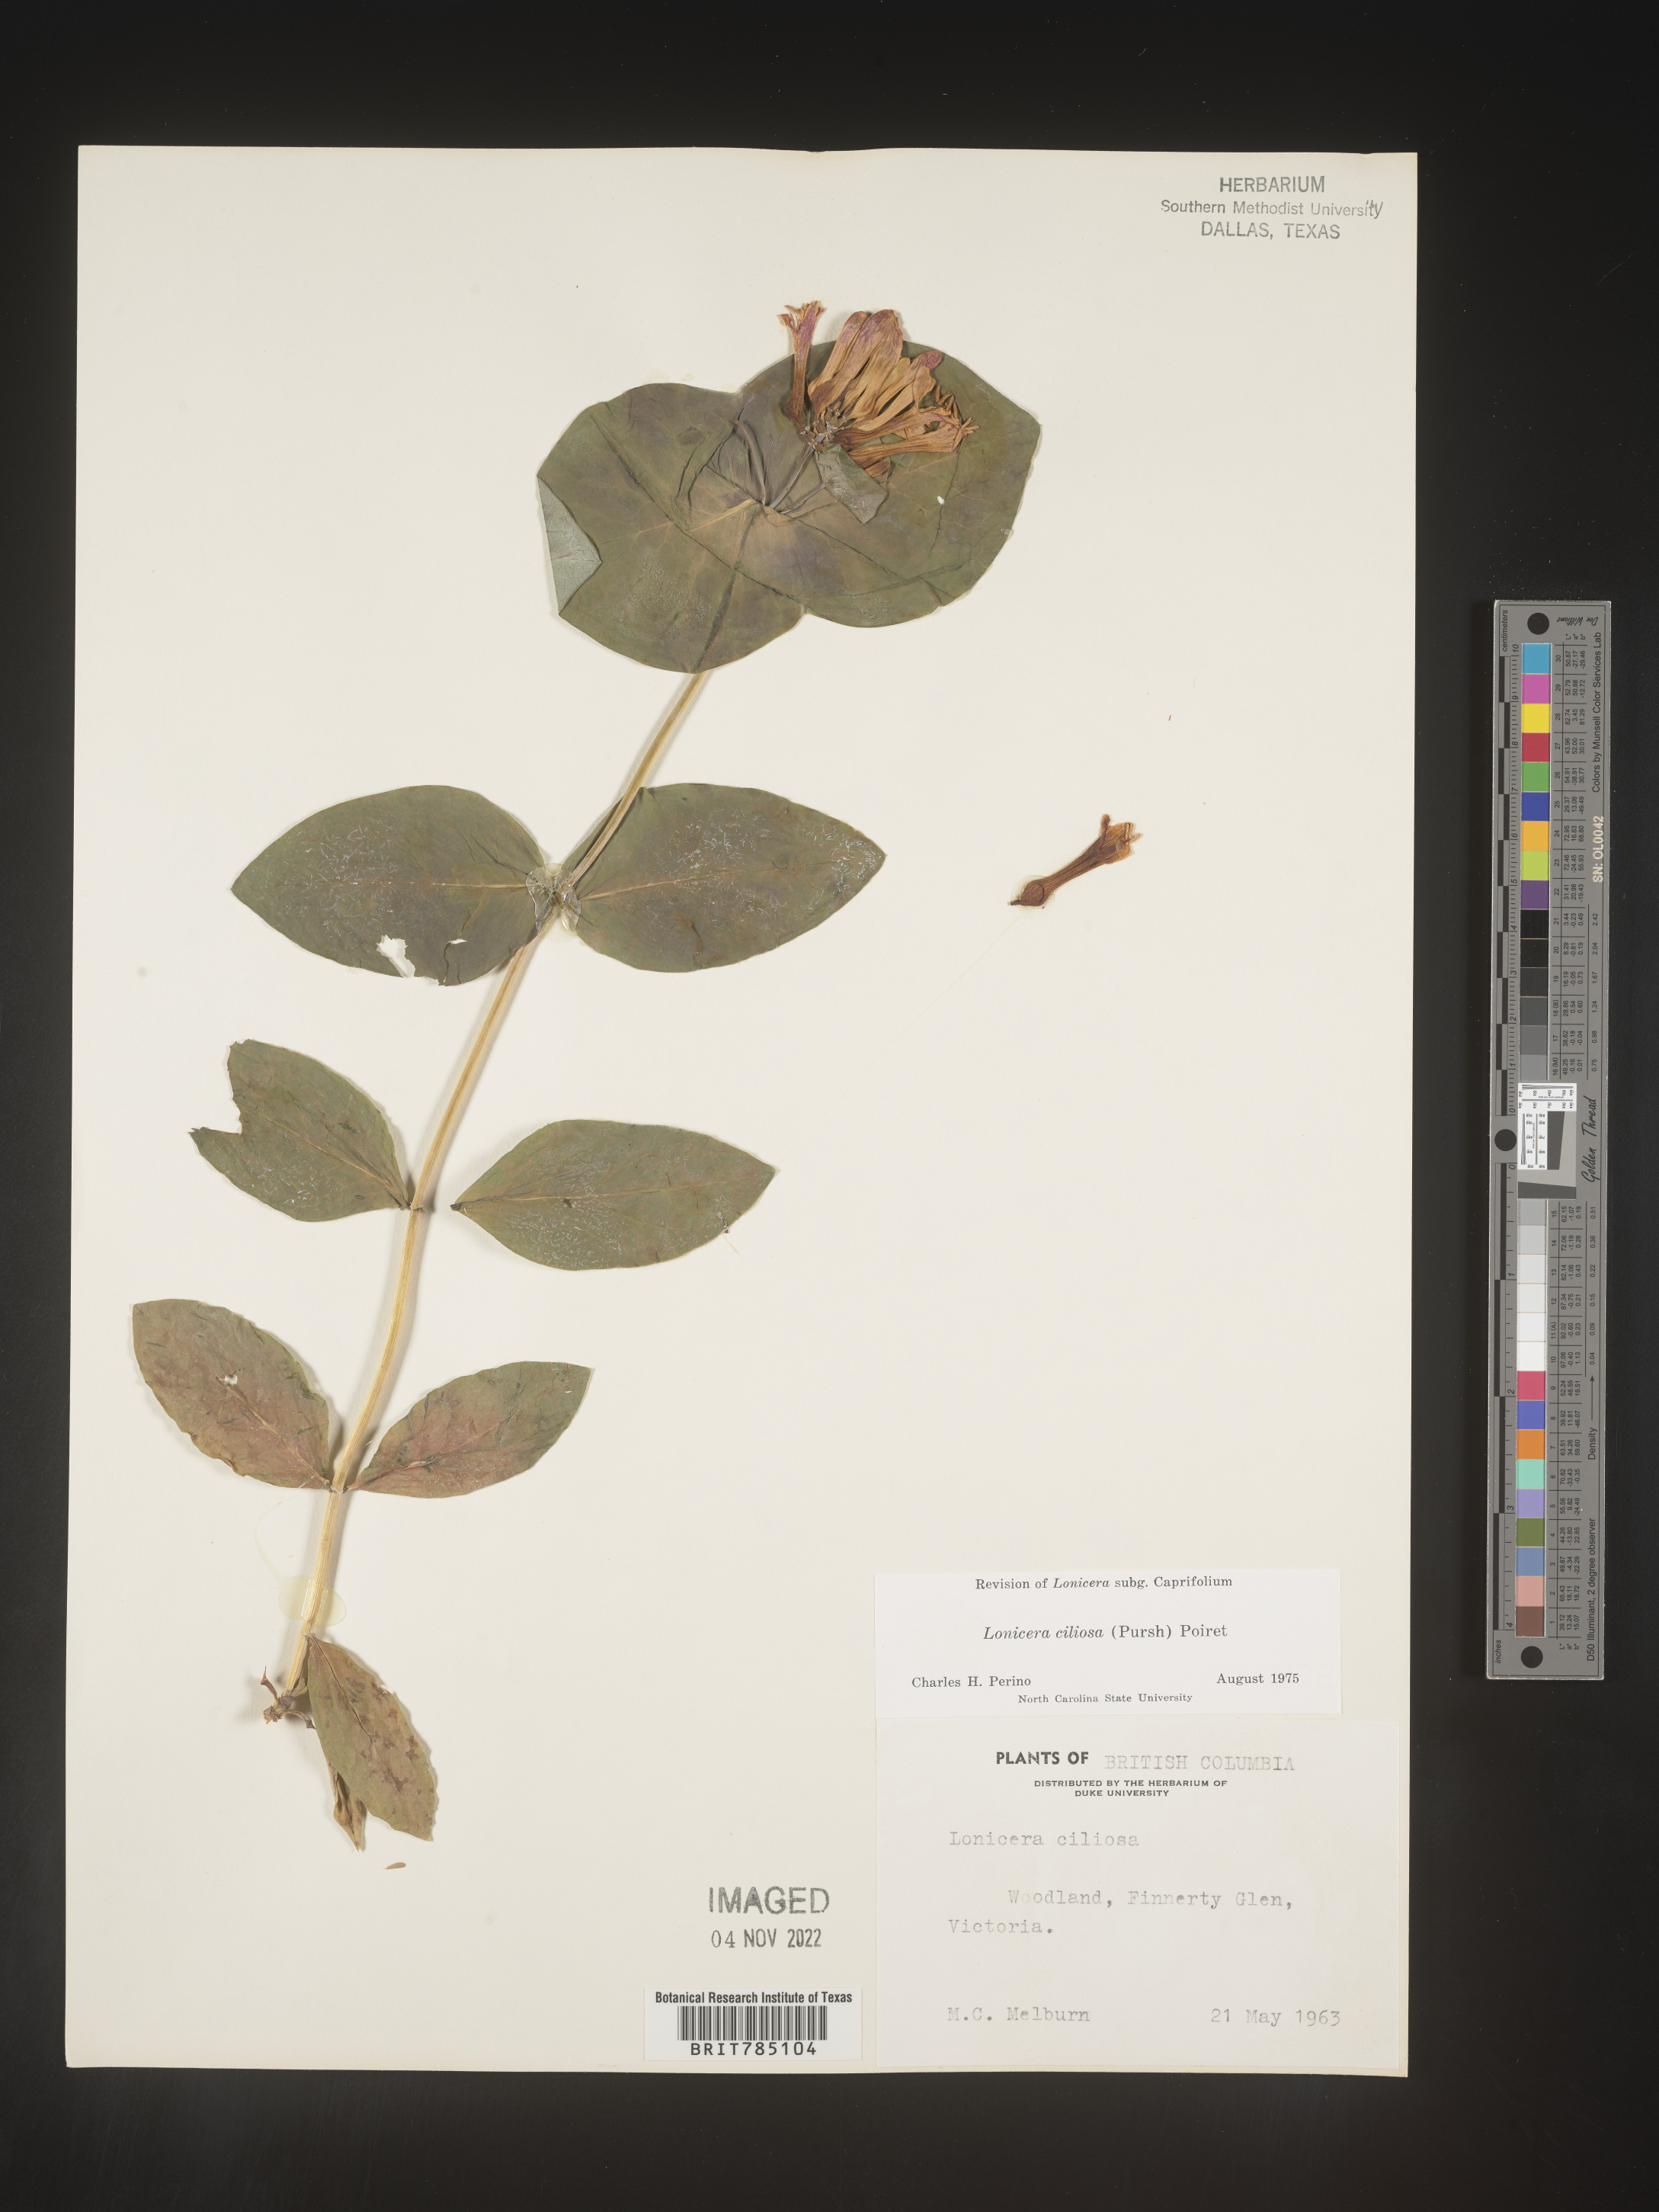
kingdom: Plantae
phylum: Tracheophyta
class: Magnoliopsida
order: Dipsacales
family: Caprifoliaceae
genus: Lonicera
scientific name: Lonicera
